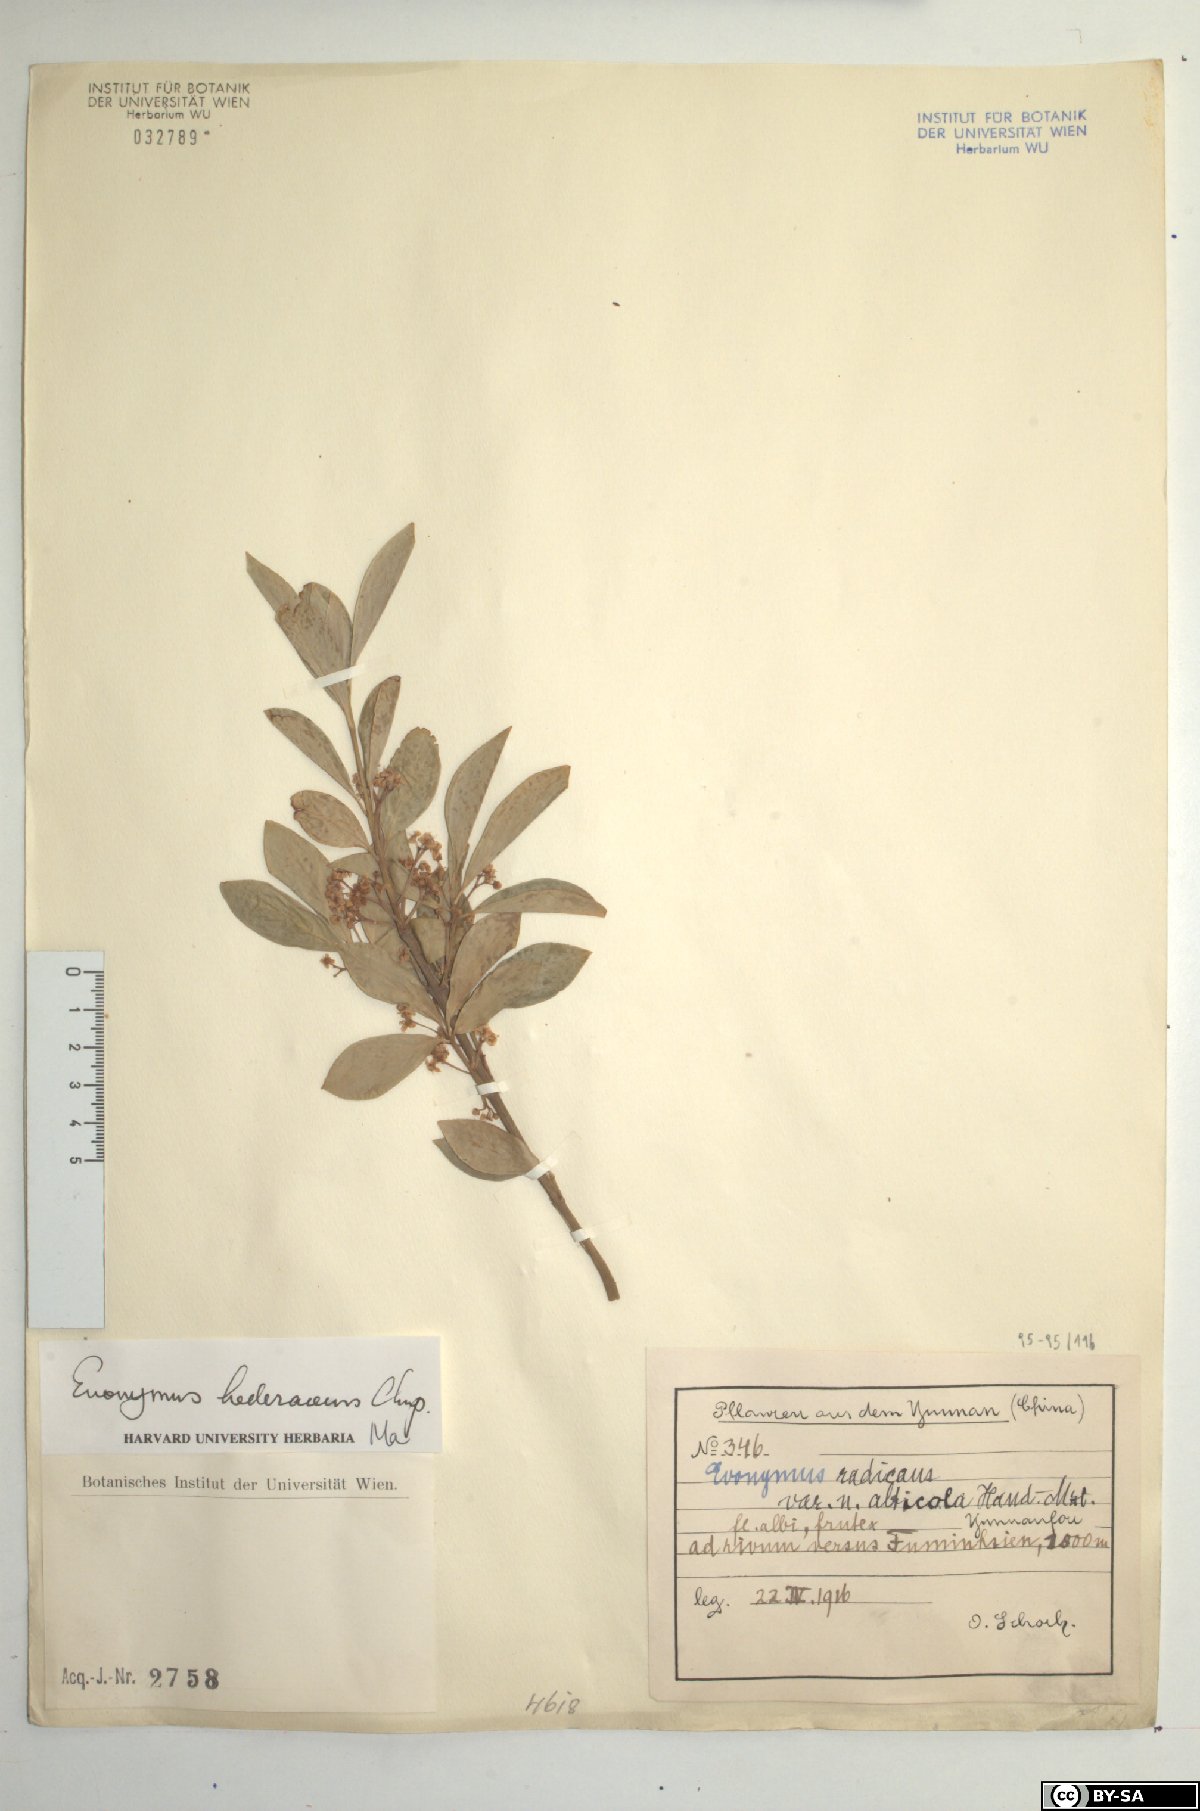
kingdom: Plantae
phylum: Tracheophyta
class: Magnoliopsida
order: Celastrales
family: Celastraceae
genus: Euonymus
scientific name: Euonymus fortunei
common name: Climbing euonymus
